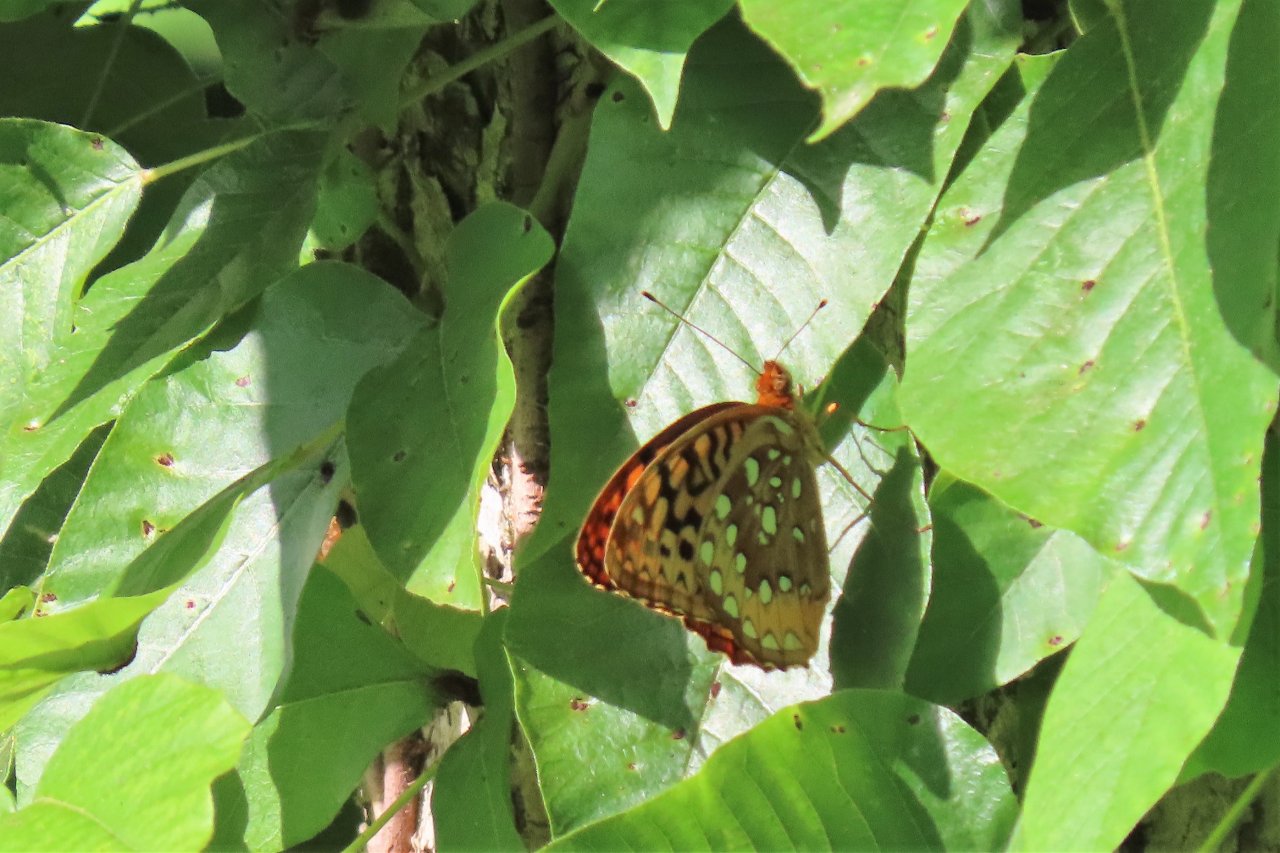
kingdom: Animalia
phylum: Arthropoda
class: Insecta
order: Lepidoptera
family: Nymphalidae
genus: Speyeria
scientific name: Speyeria cybele
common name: Great Spangled Fritillary
